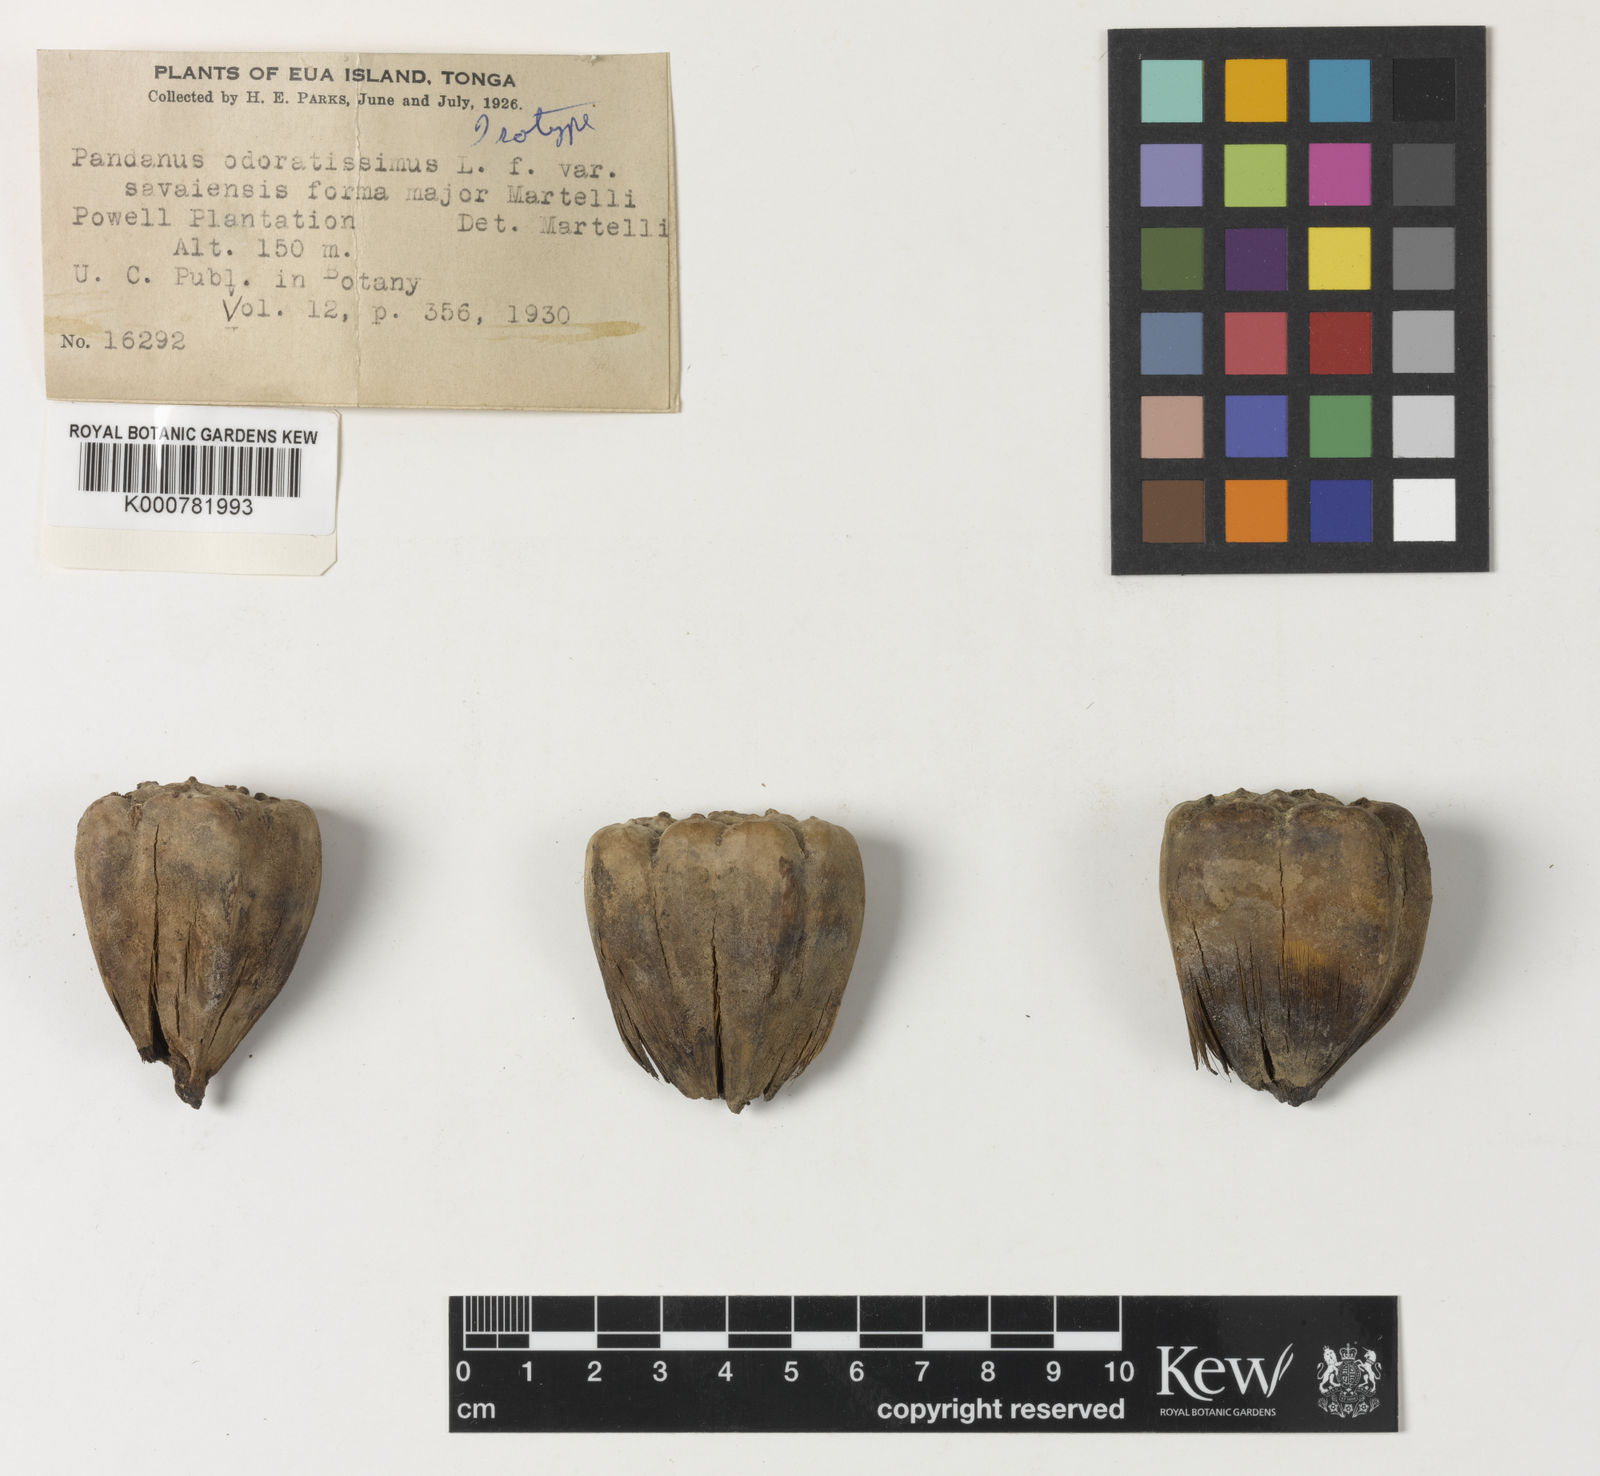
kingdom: Plantae
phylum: Tracheophyta
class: Liliopsida
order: Pandanales
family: Pandanaceae
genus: Pandanus
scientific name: Pandanus
